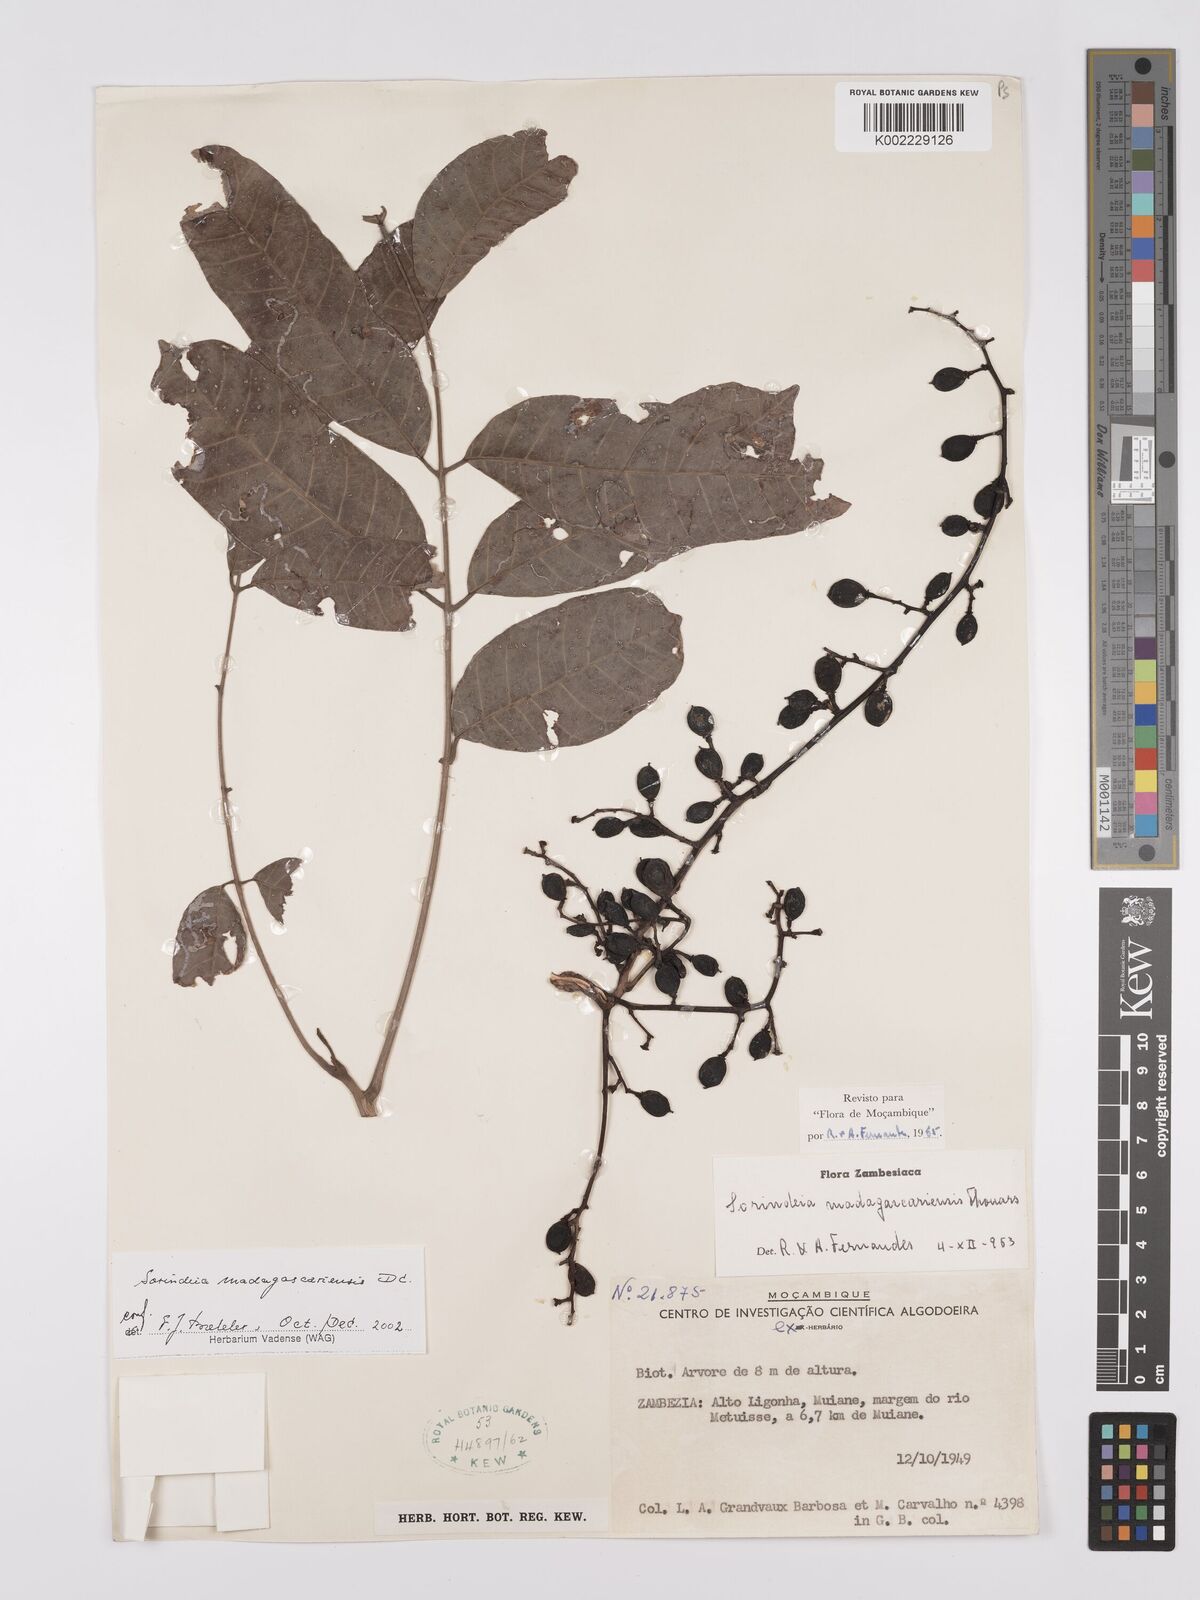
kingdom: Plantae
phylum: Tracheophyta
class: Magnoliopsida
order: Sapindales
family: Anacardiaceae
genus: Sorindeia
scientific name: Sorindeia madagascariensis
